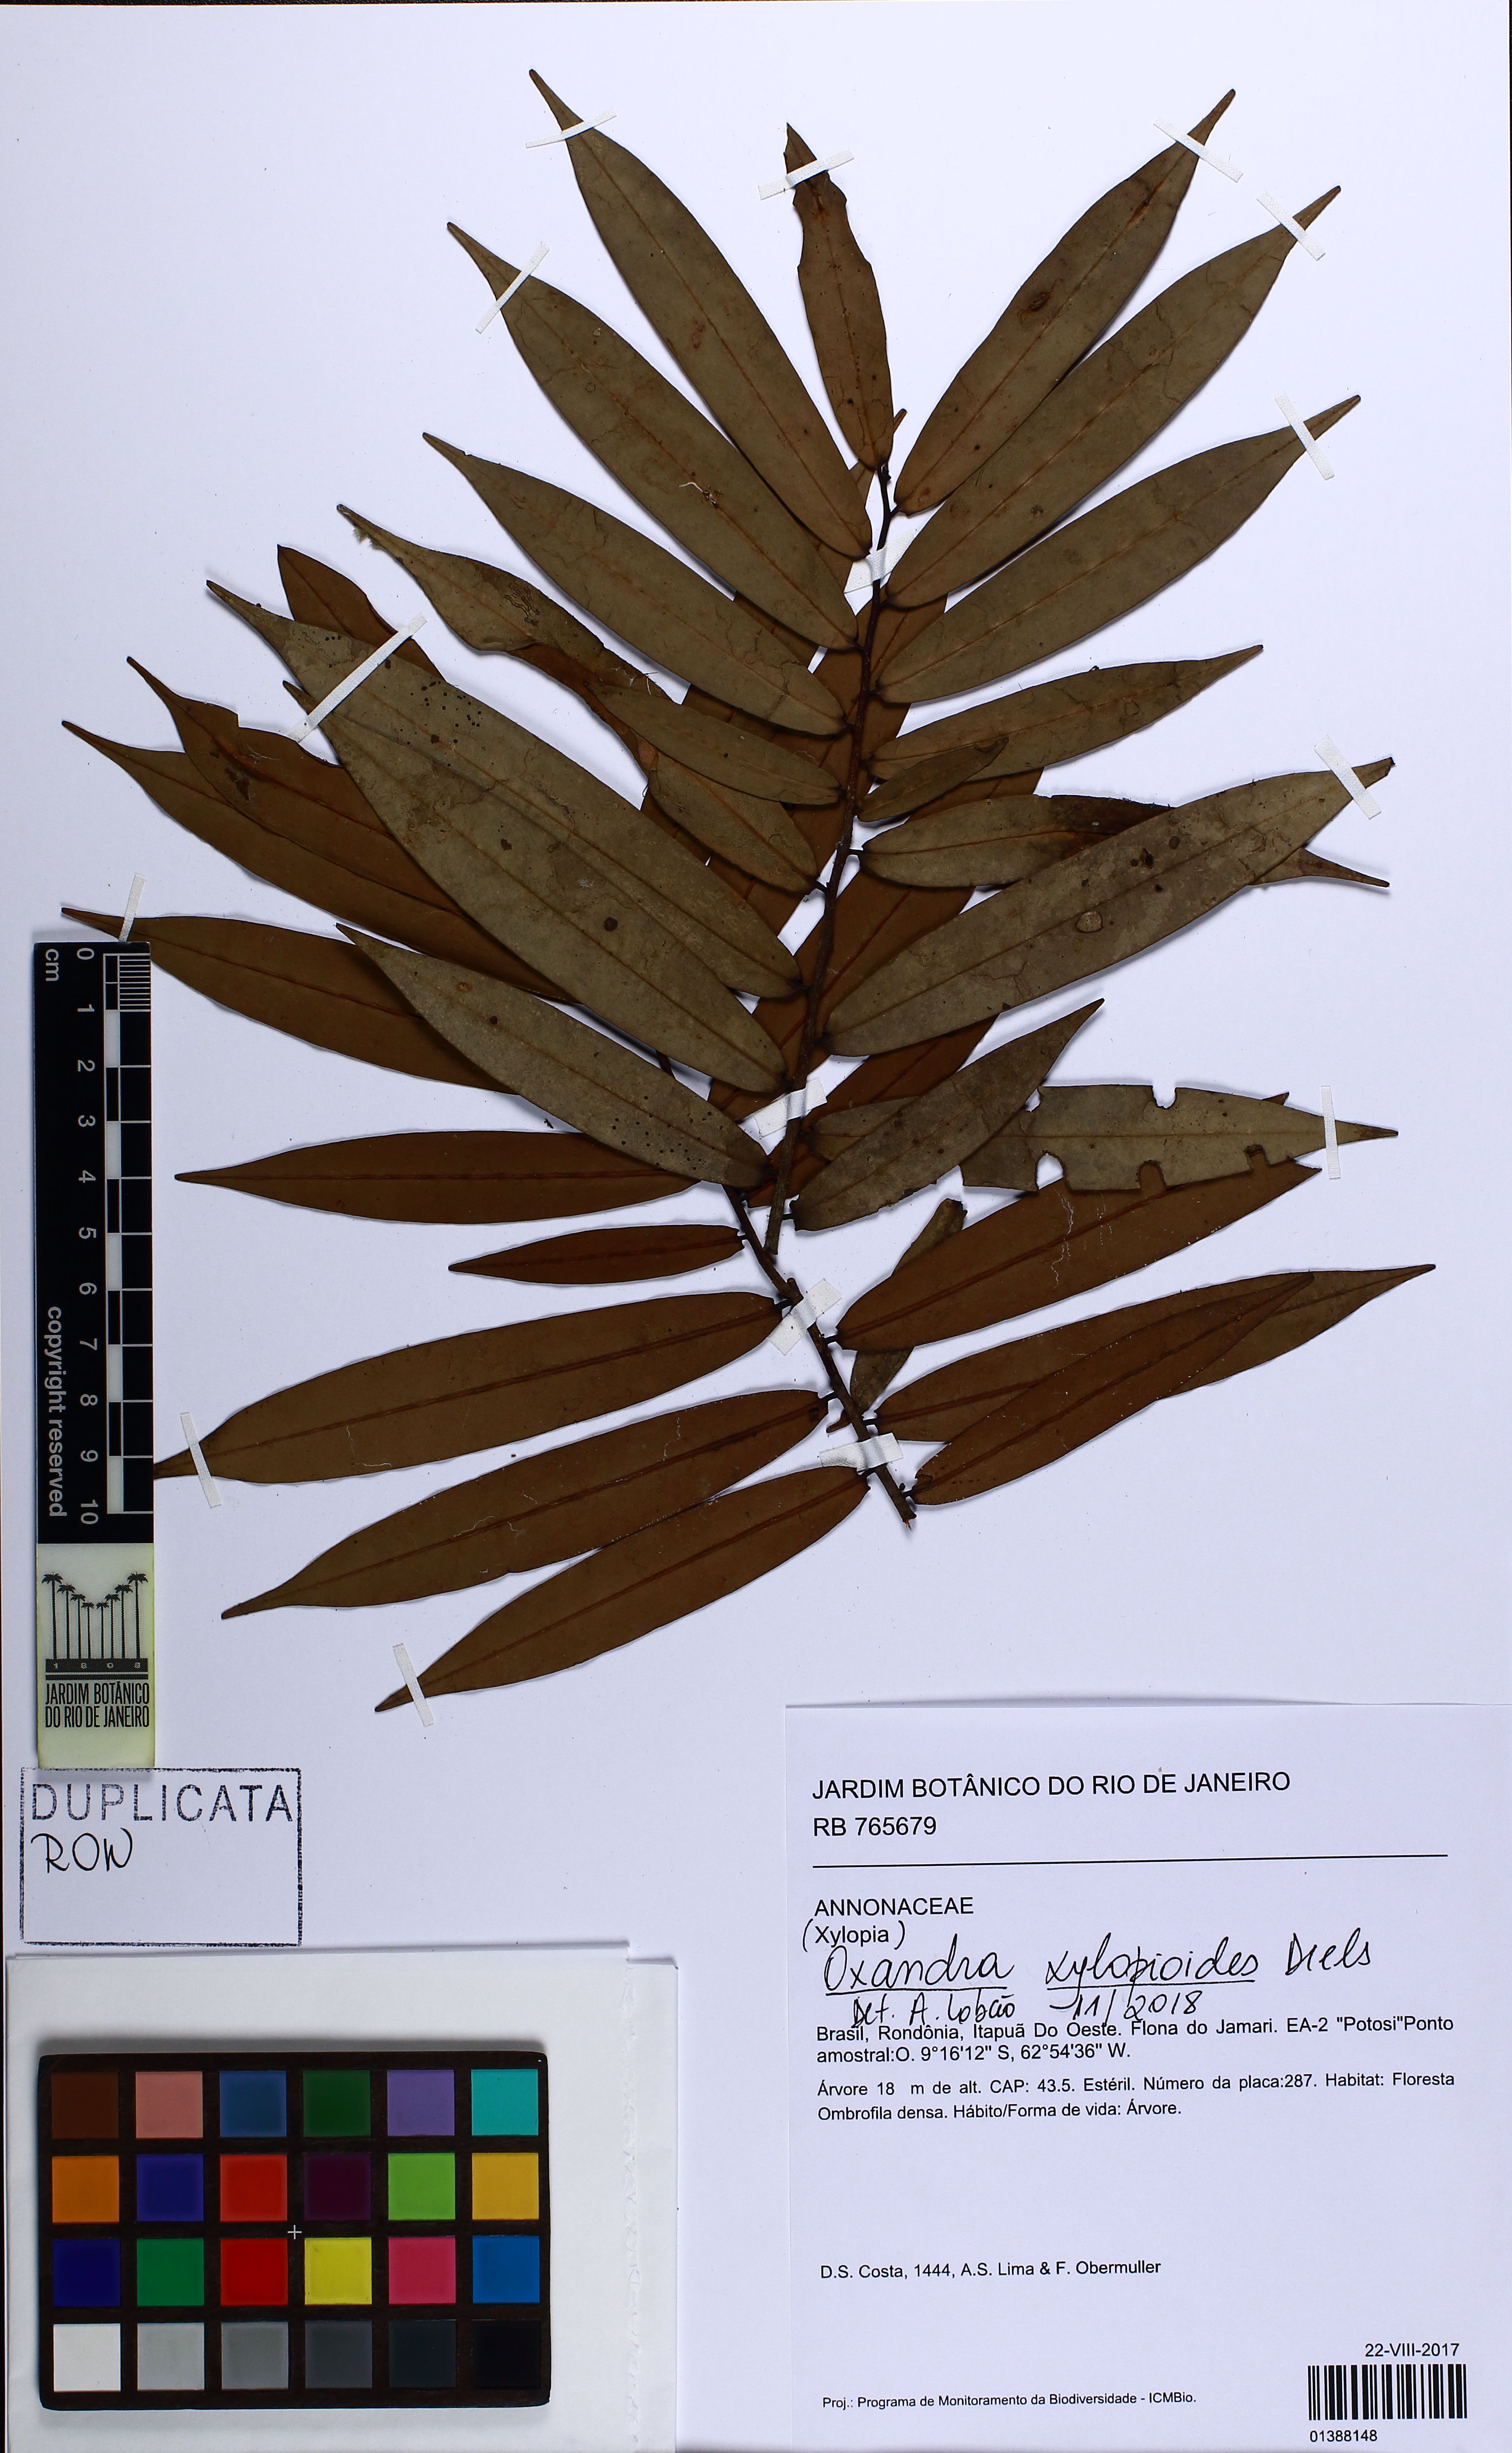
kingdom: Plantae
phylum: Tracheophyta
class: Magnoliopsida
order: Magnoliales
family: Annonaceae
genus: Oxandra
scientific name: Oxandra xylopioides
